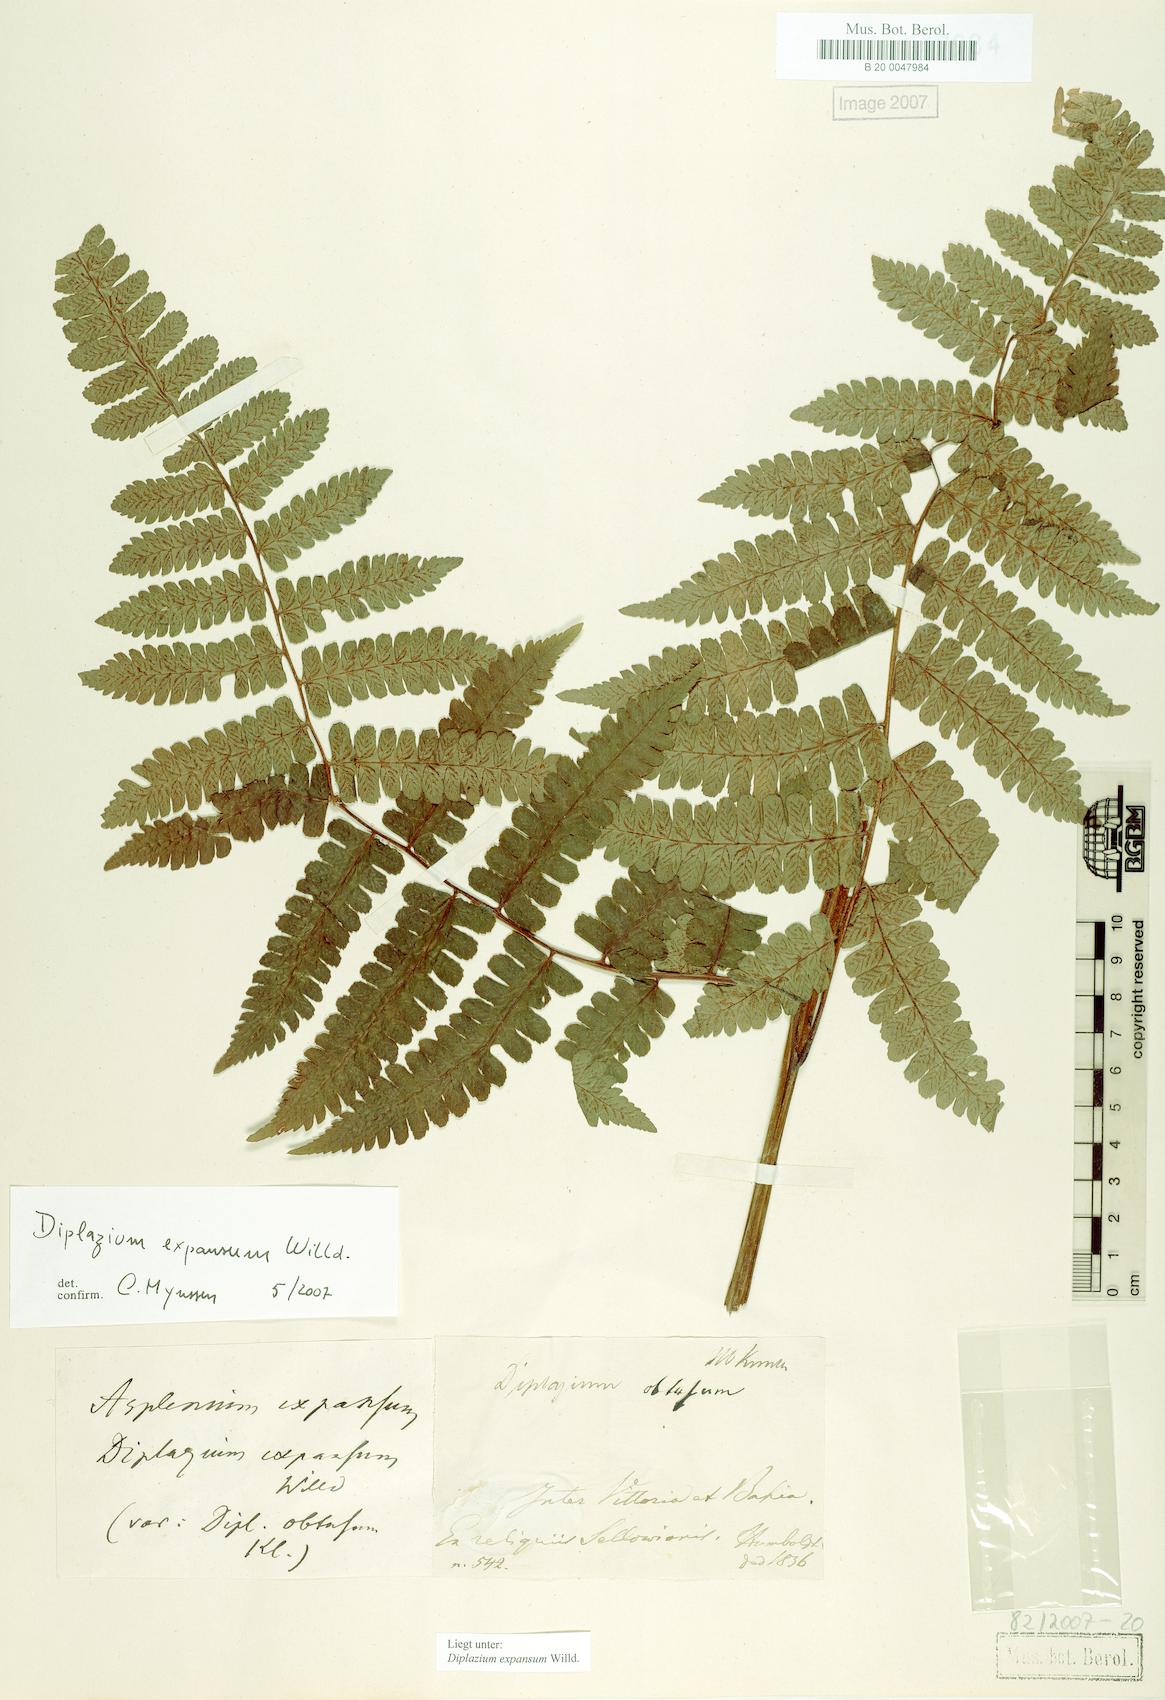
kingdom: Plantae
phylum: Tracheophyta
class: Polypodiopsida
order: Polypodiales
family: Athyriaceae
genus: Diplazium
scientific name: Diplazium expansum
